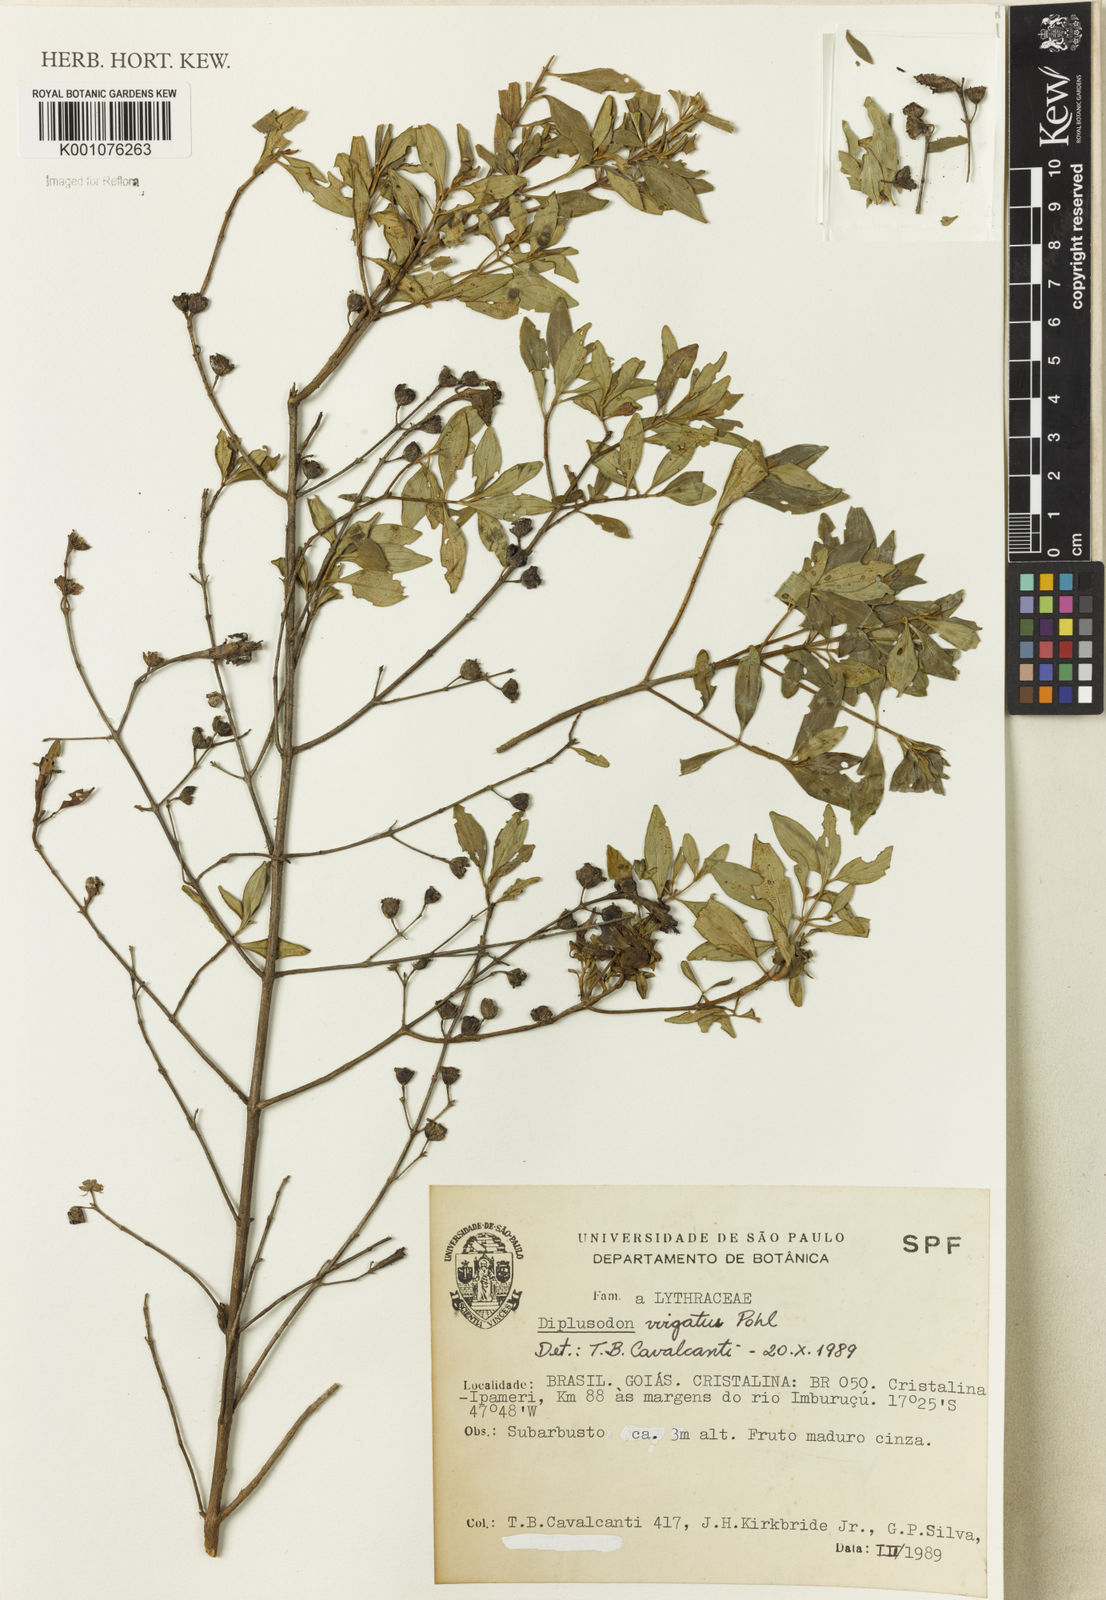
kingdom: Plantae
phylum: Tracheophyta
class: Magnoliopsida
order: Myrtales
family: Lythraceae
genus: Diplusodon
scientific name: Diplusodon virgatus
